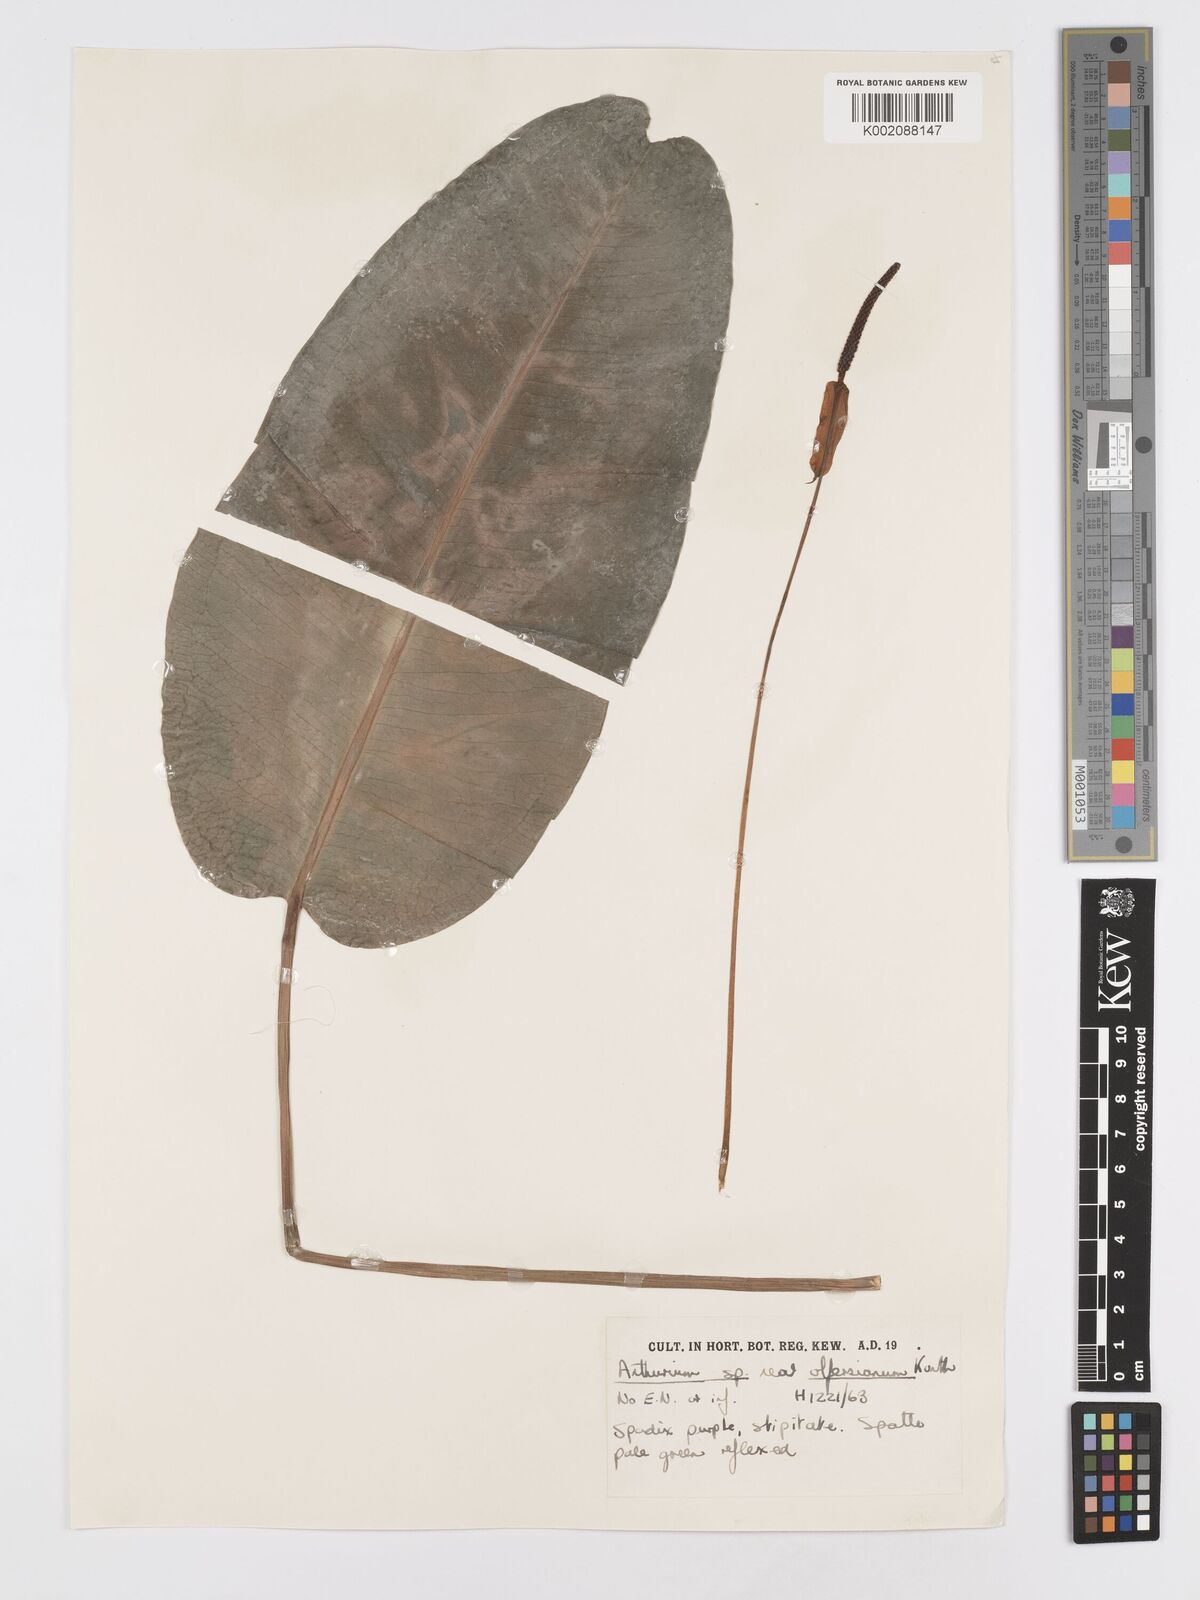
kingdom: Plantae
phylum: Tracheophyta
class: Liliopsida
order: Alismatales
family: Araceae
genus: Anthurium
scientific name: Anthurium
